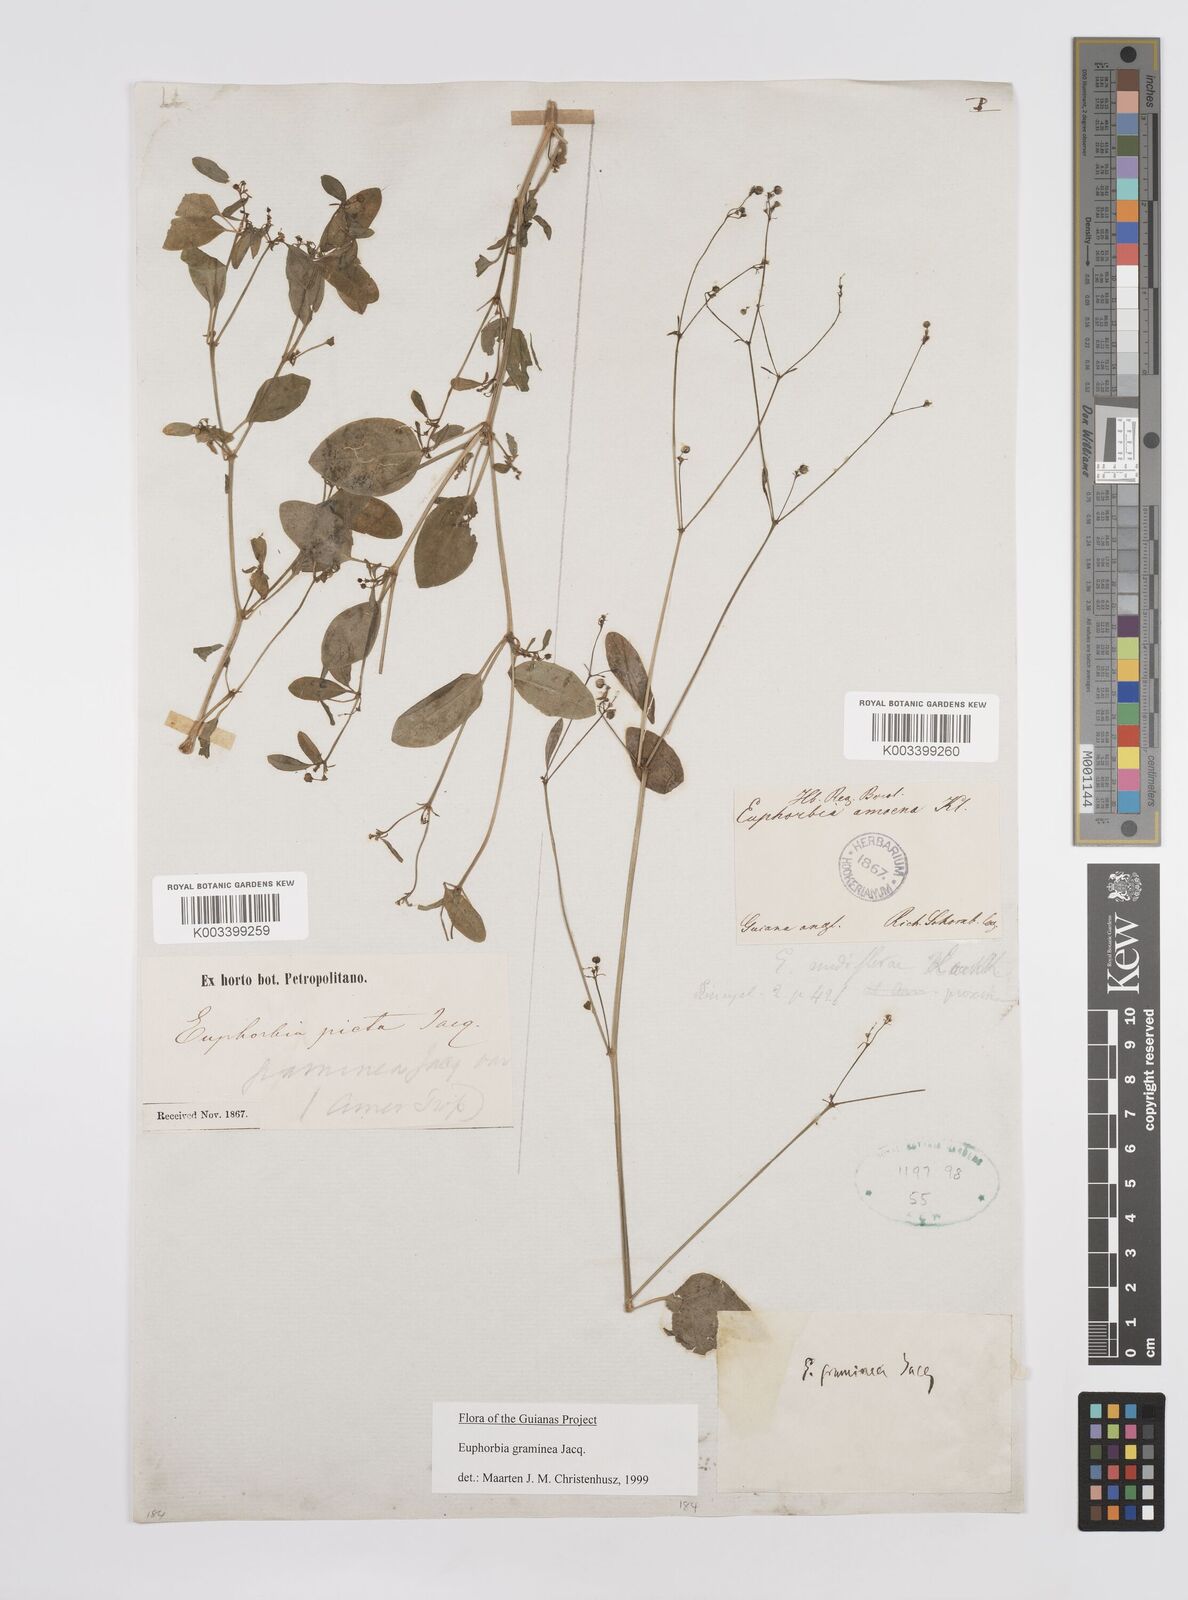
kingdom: Plantae
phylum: Tracheophyta
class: Magnoliopsida
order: Malpighiales
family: Euphorbiaceae
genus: Euphorbia
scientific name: Euphorbia graminea
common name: Grassleaf spurge
